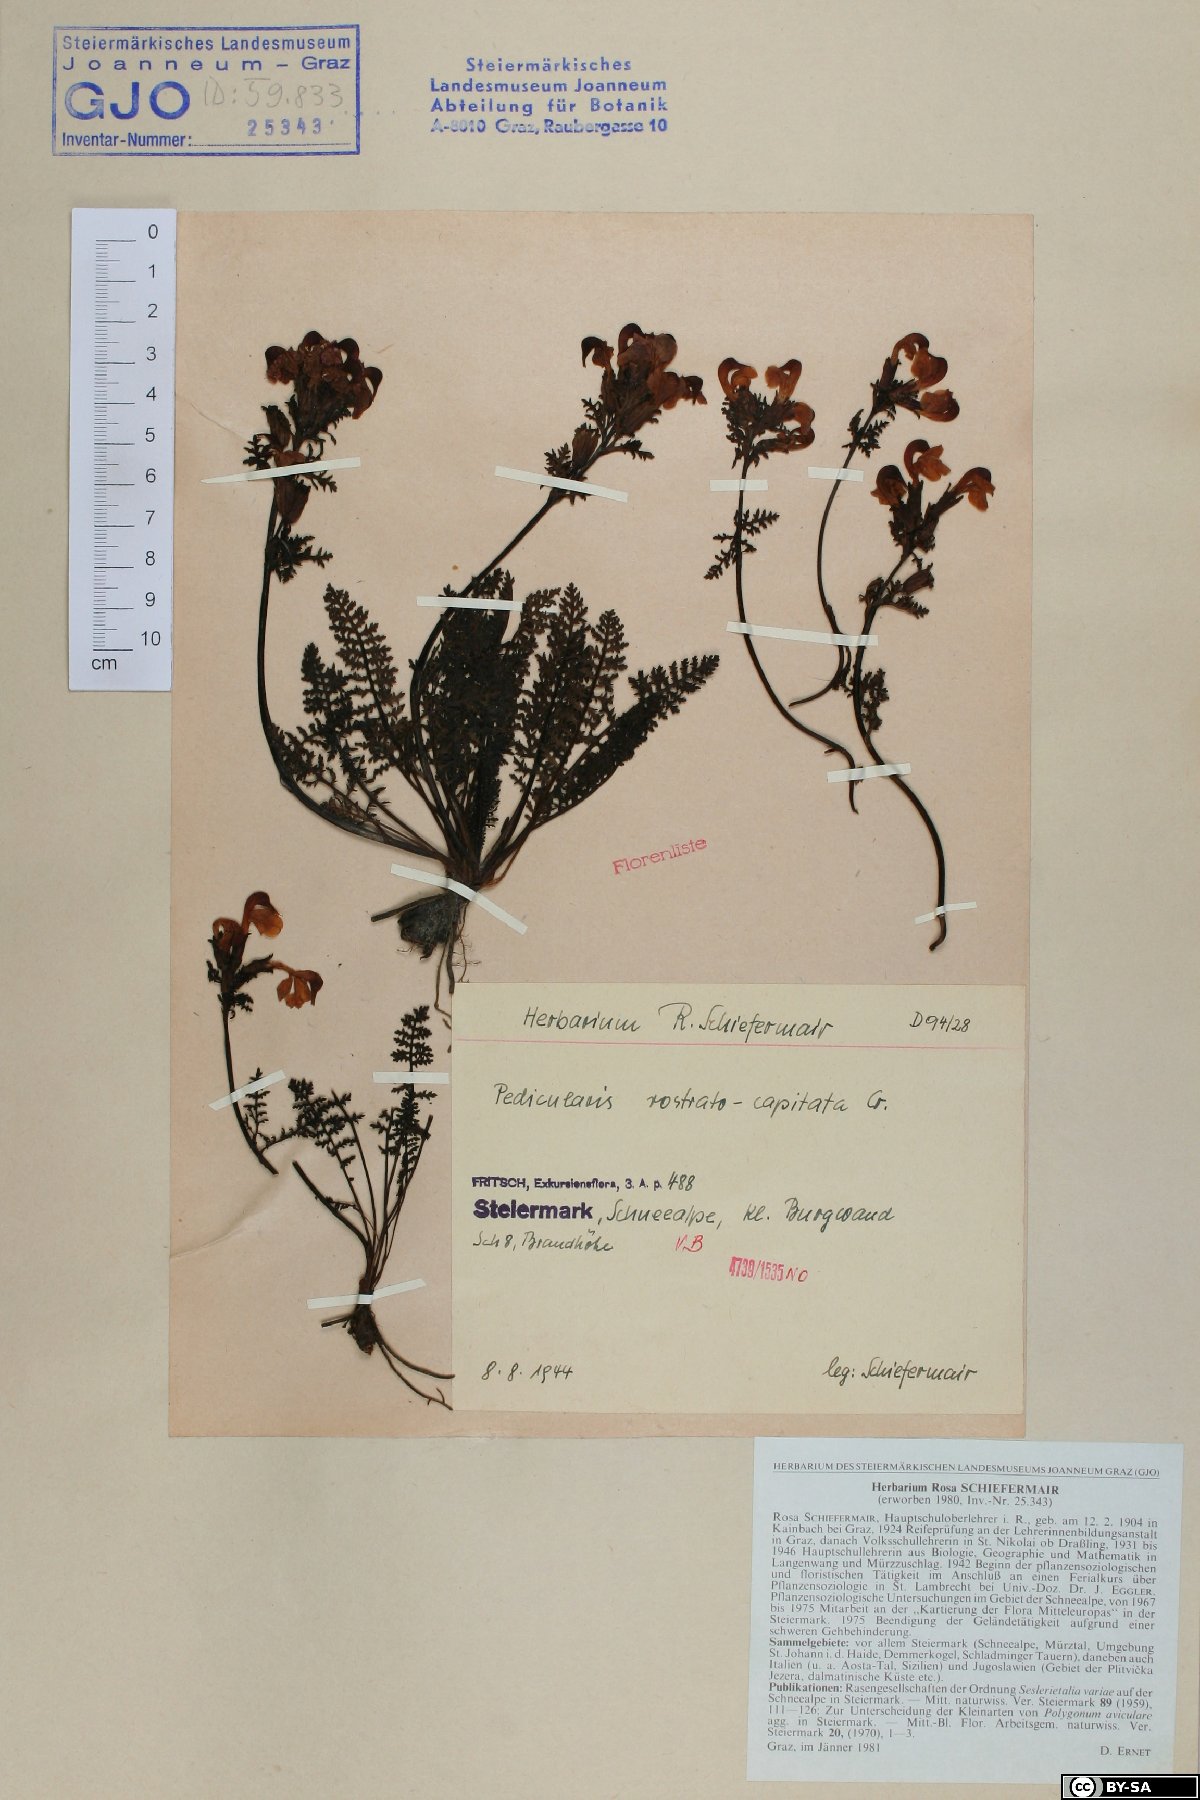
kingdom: Plantae
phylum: Tracheophyta
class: Magnoliopsida
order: Lamiales
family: Orobanchaceae
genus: Pedicularis
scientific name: Pedicularis rostratocapitata
